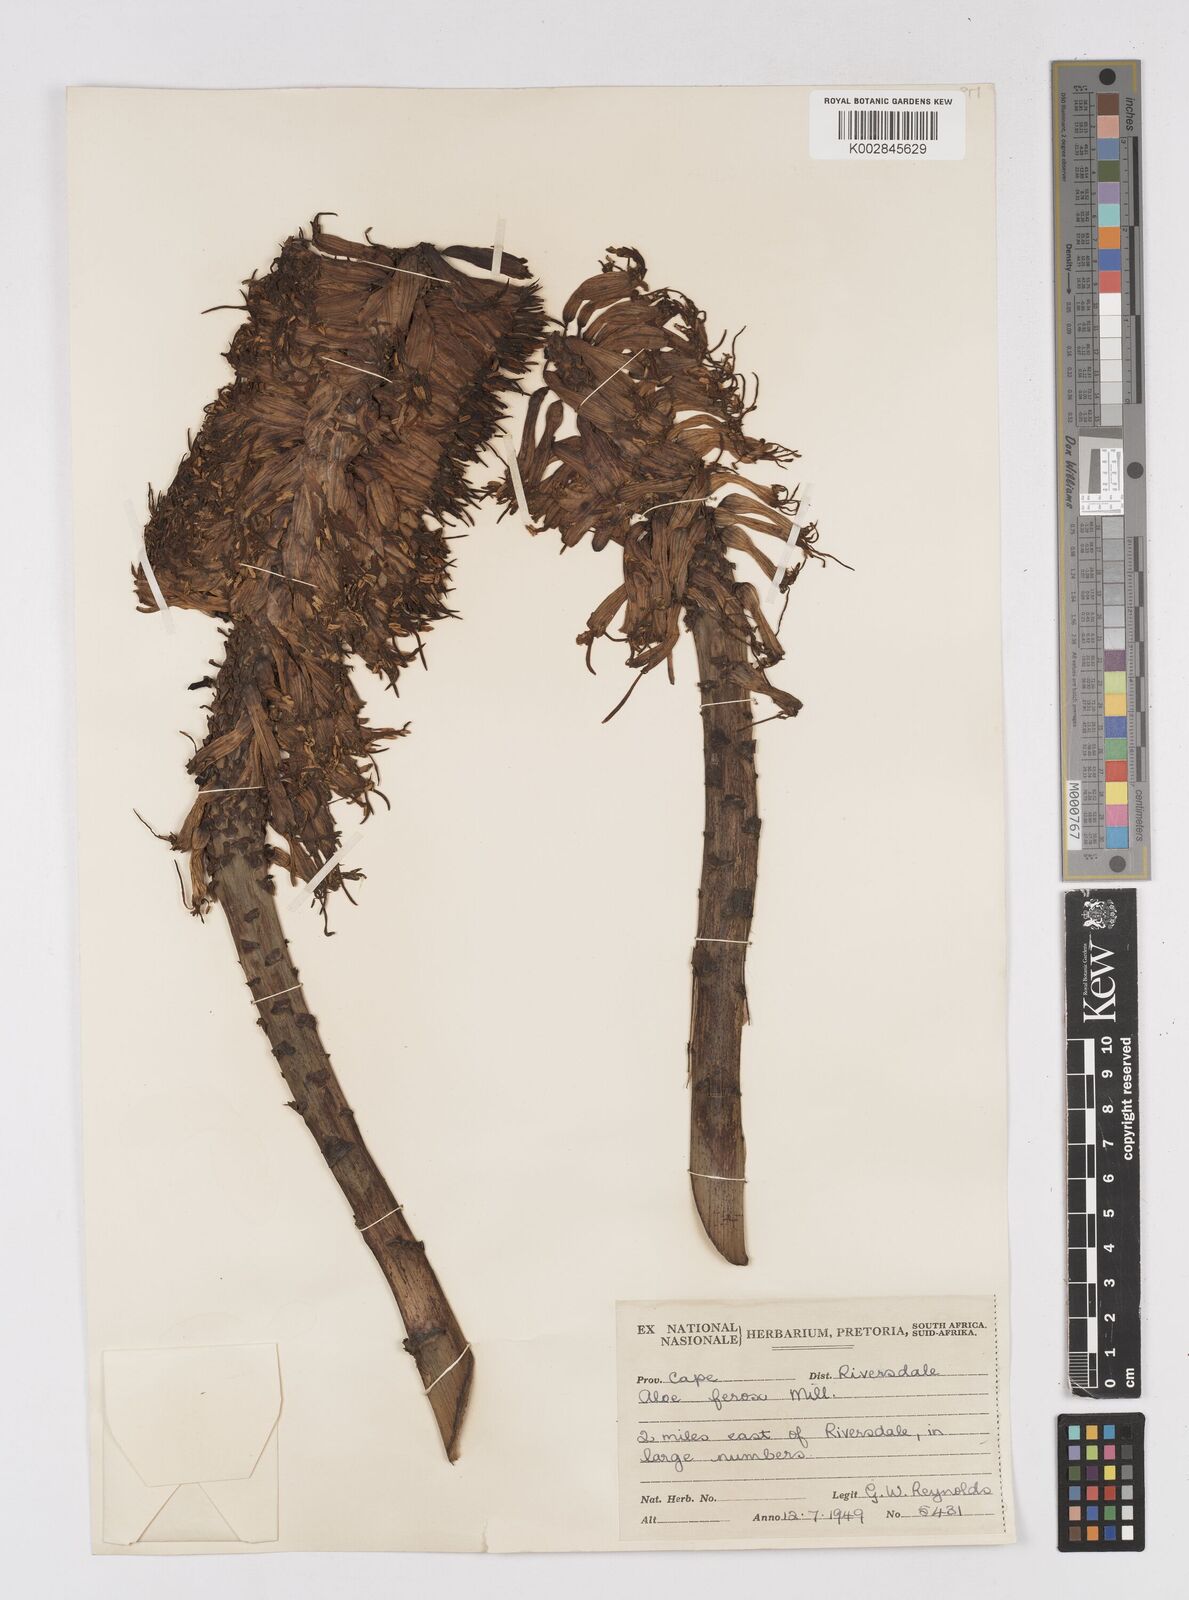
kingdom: Plantae
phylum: Tracheophyta
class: Liliopsida
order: Asparagales
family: Asphodelaceae
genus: Aloe
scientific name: Aloe ferox
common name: Bitter aloe
